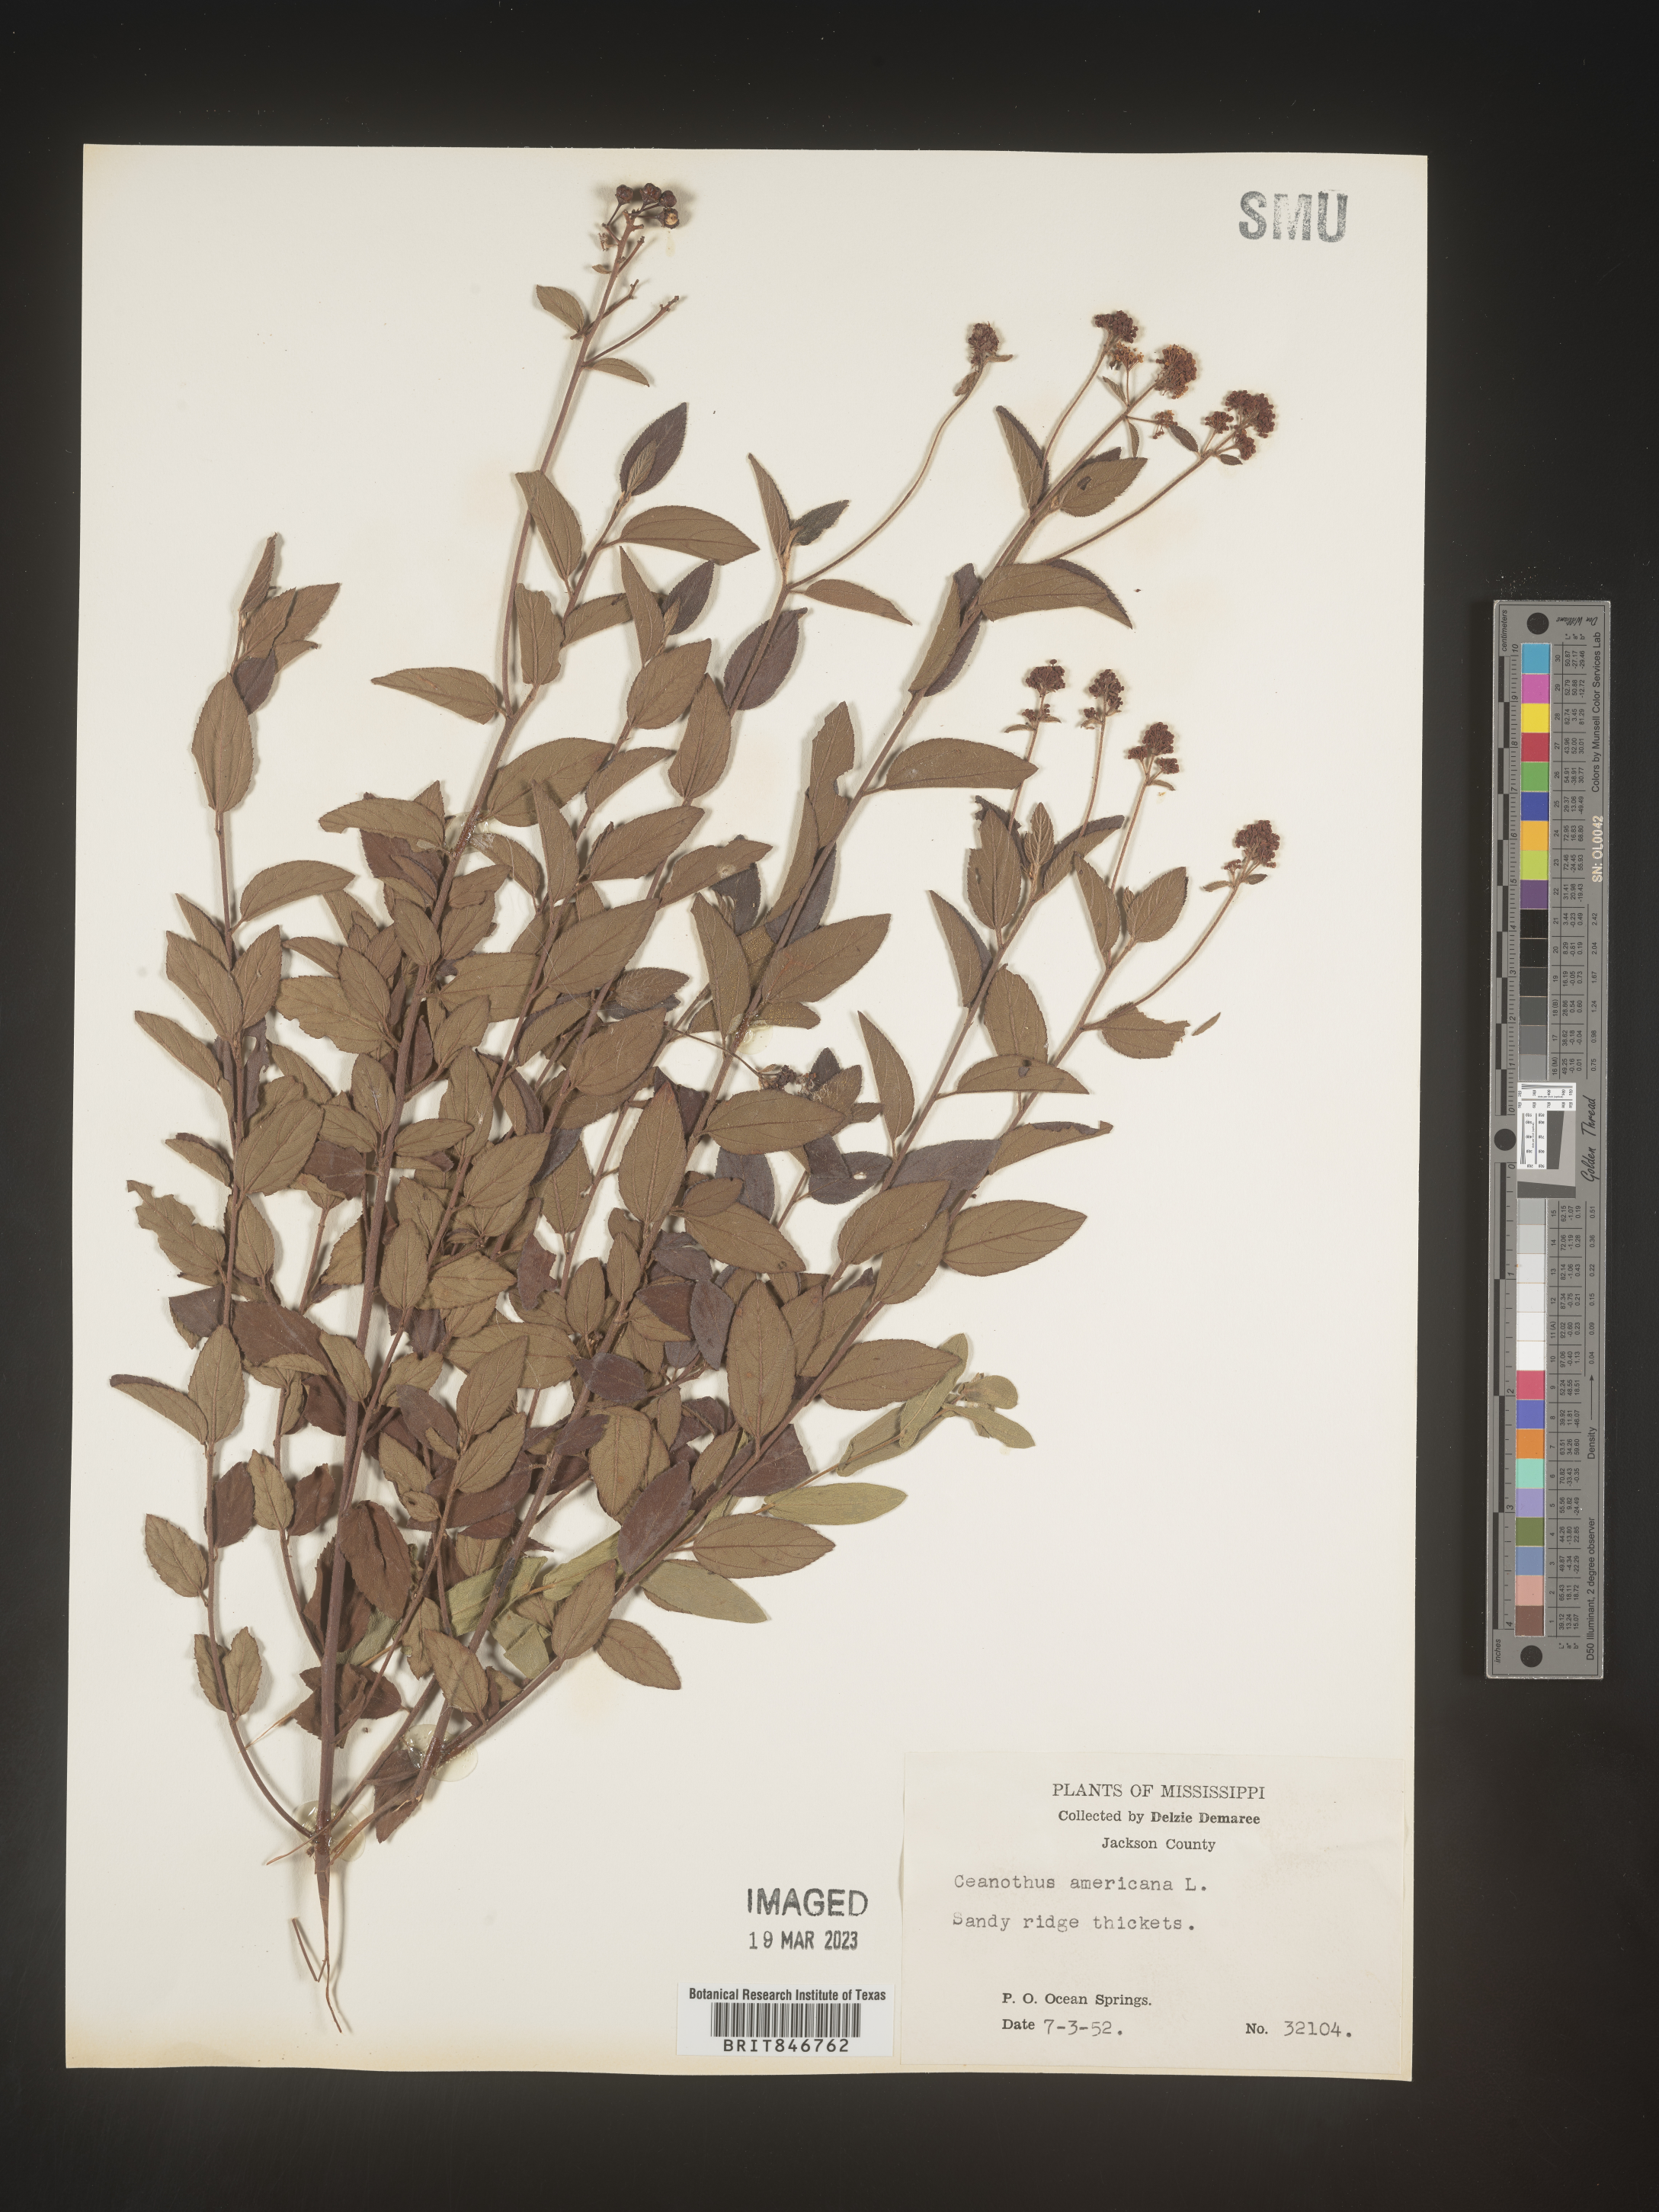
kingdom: Plantae
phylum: Tracheophyta
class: Magnoliopsida
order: Rosales
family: Rhamnaceae
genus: Ceanothus
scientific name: Ceanothus americanus
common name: Redroot
